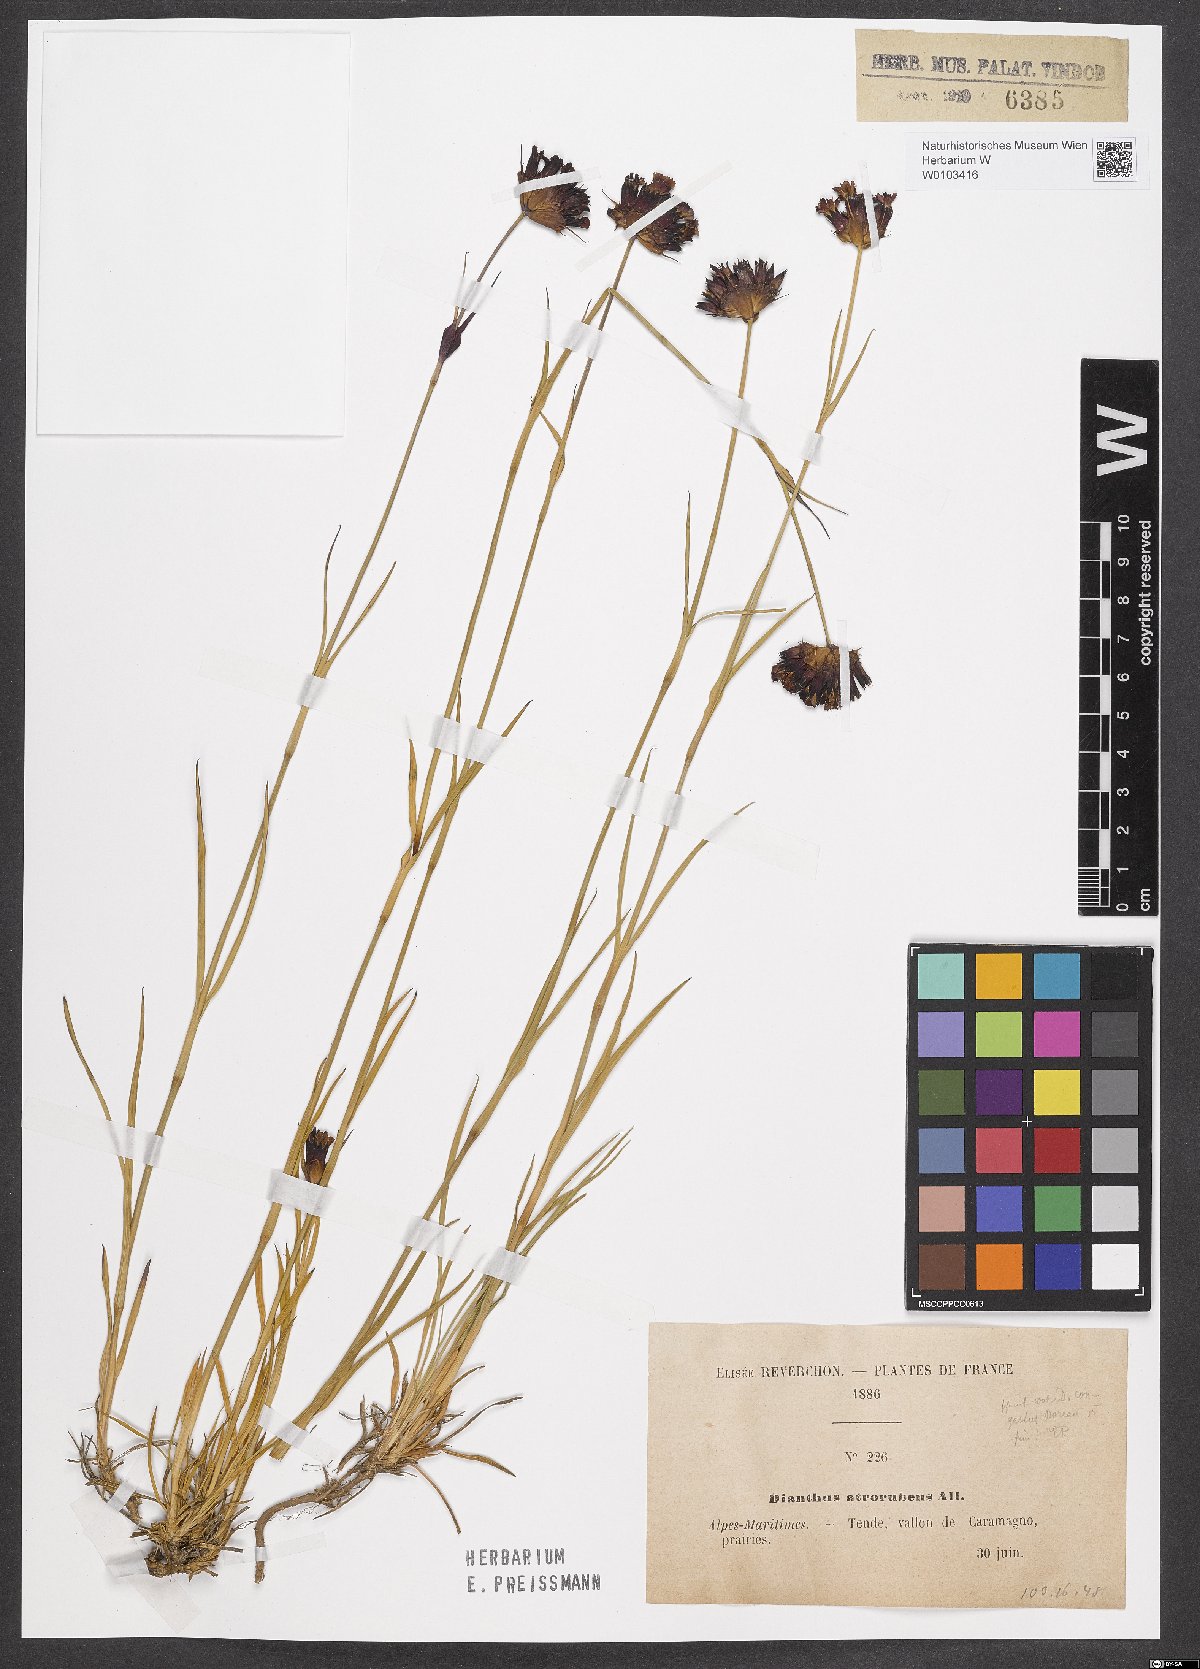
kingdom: Plantae
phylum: Tracheophyta
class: Magnoliopsida
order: Caryophyllales
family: Caryophyllaceae
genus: Dianthus
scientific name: Dianthus carthusianorum
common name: Carthusian pink
